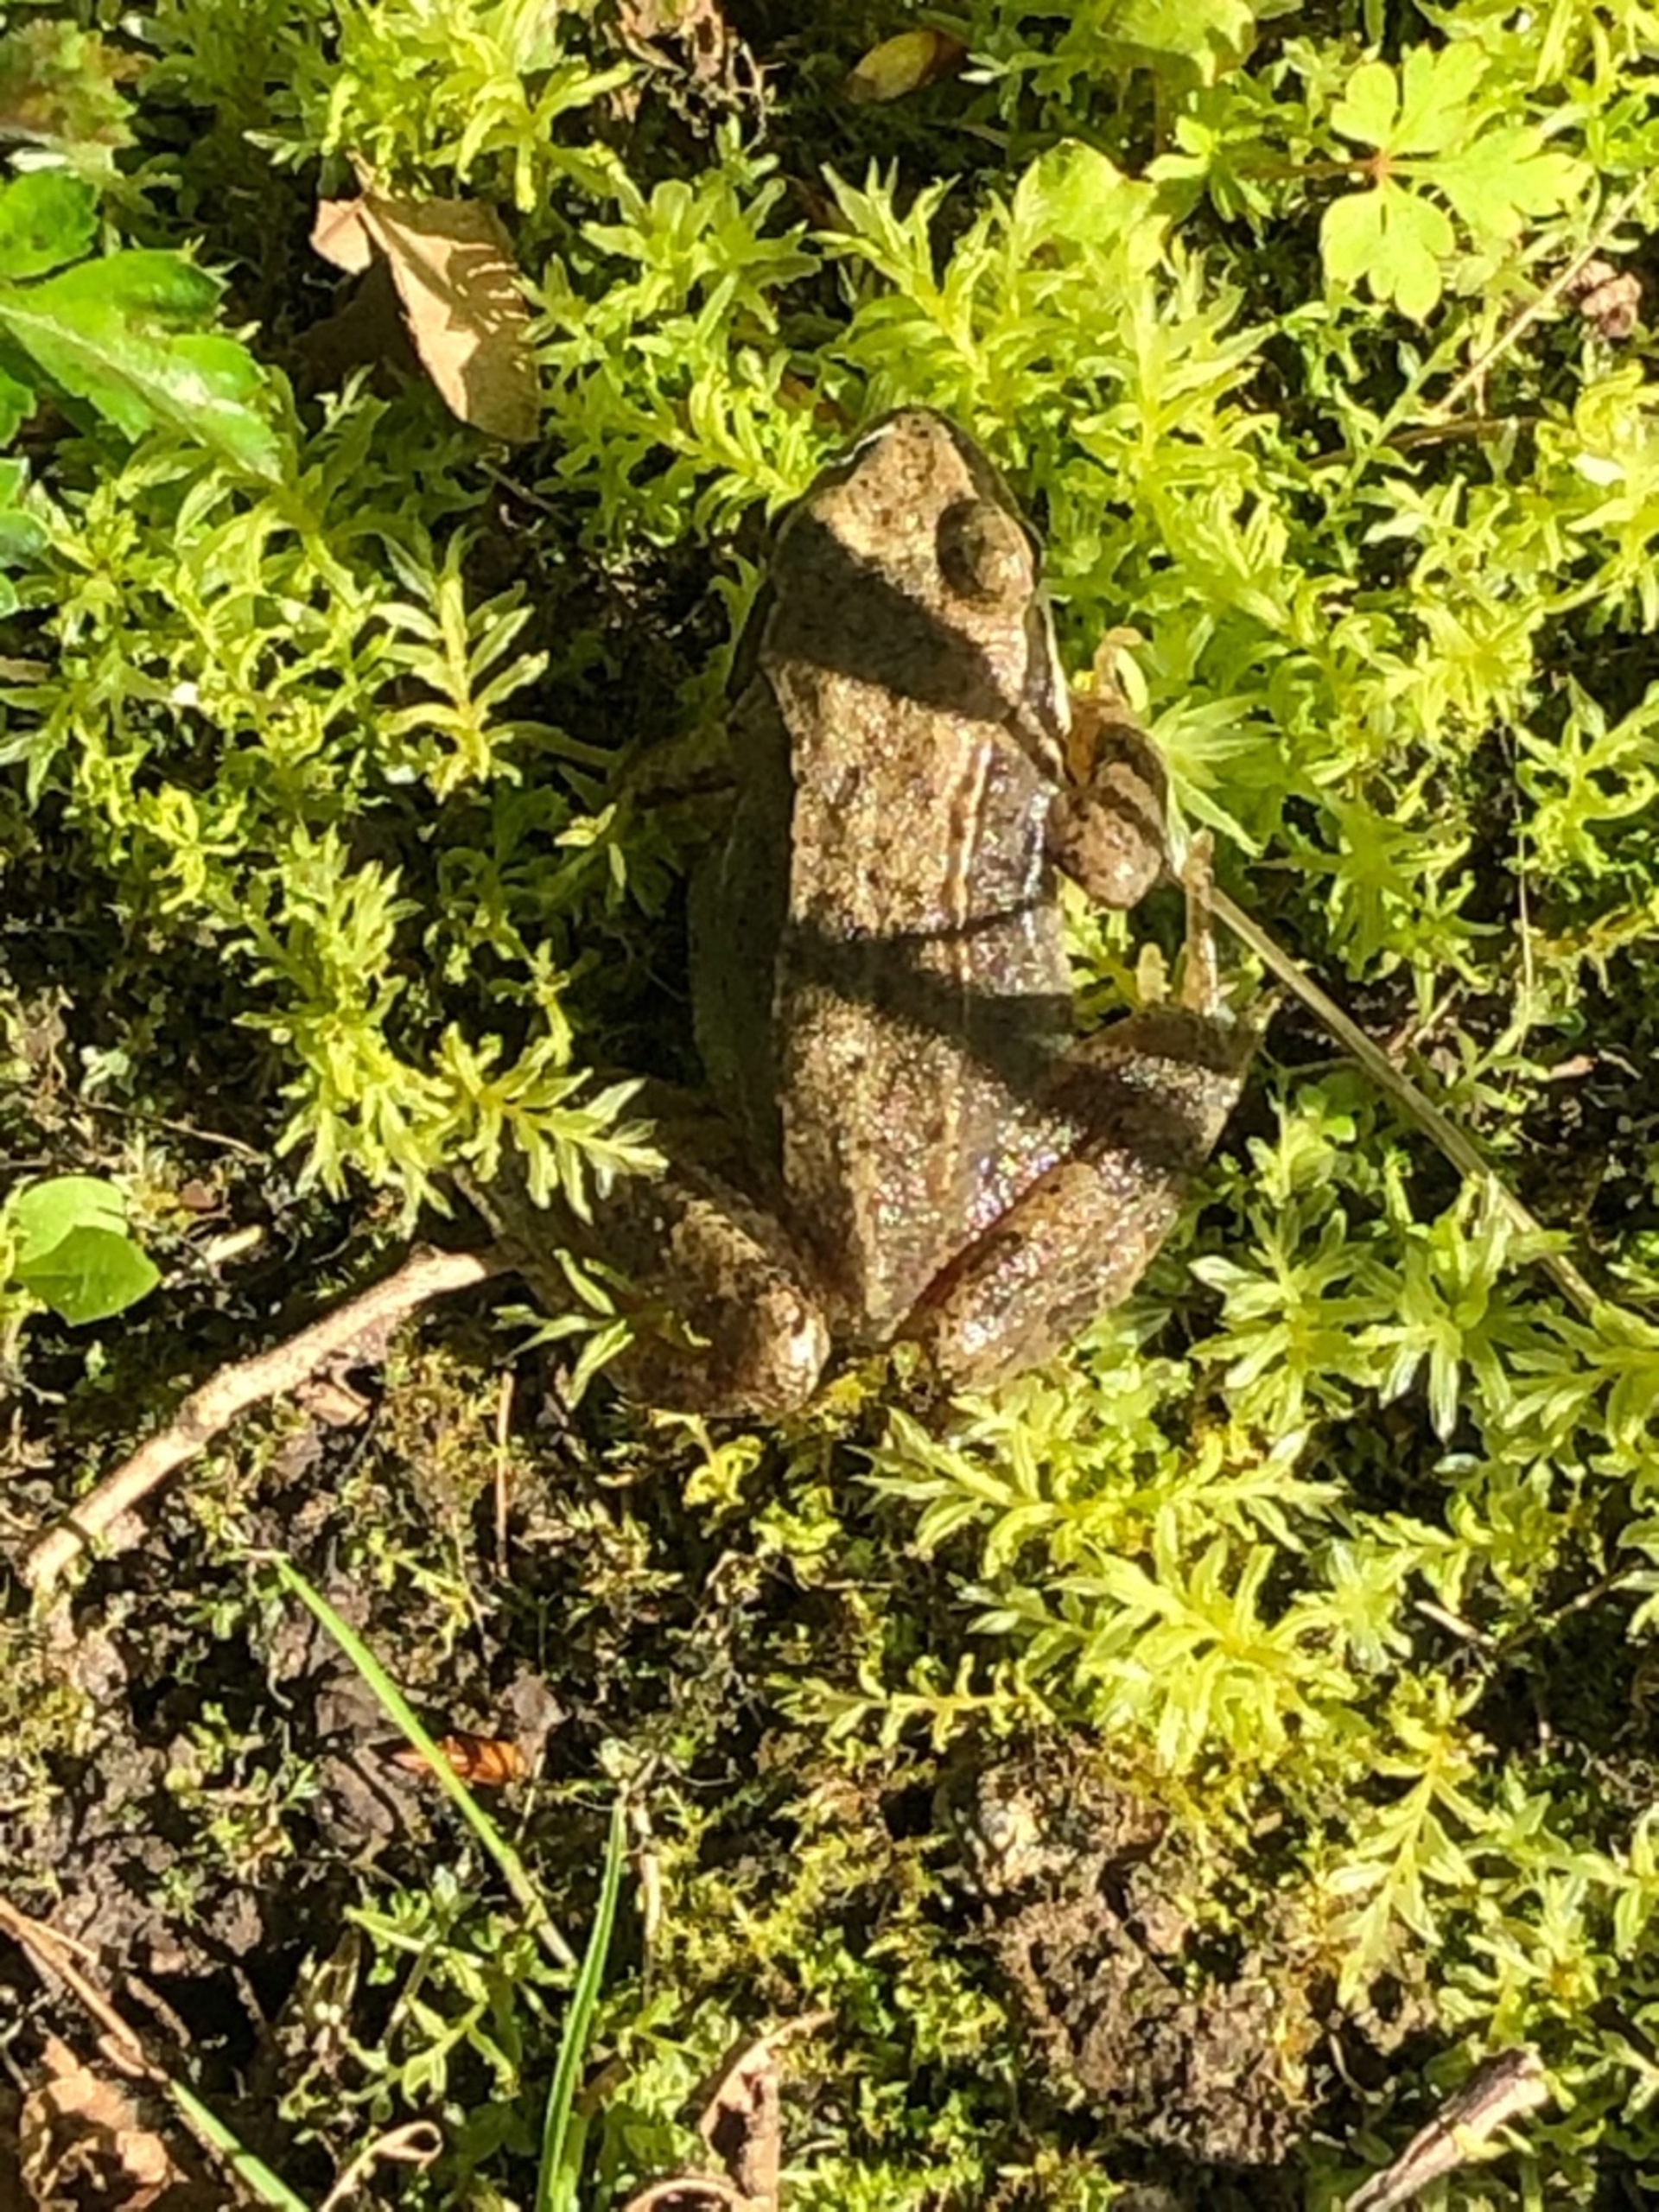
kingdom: Animalia
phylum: Chordata
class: Amphibia
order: Anura
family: Ranidae
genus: Rana
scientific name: Rana temporaria
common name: Butsnudet frø
